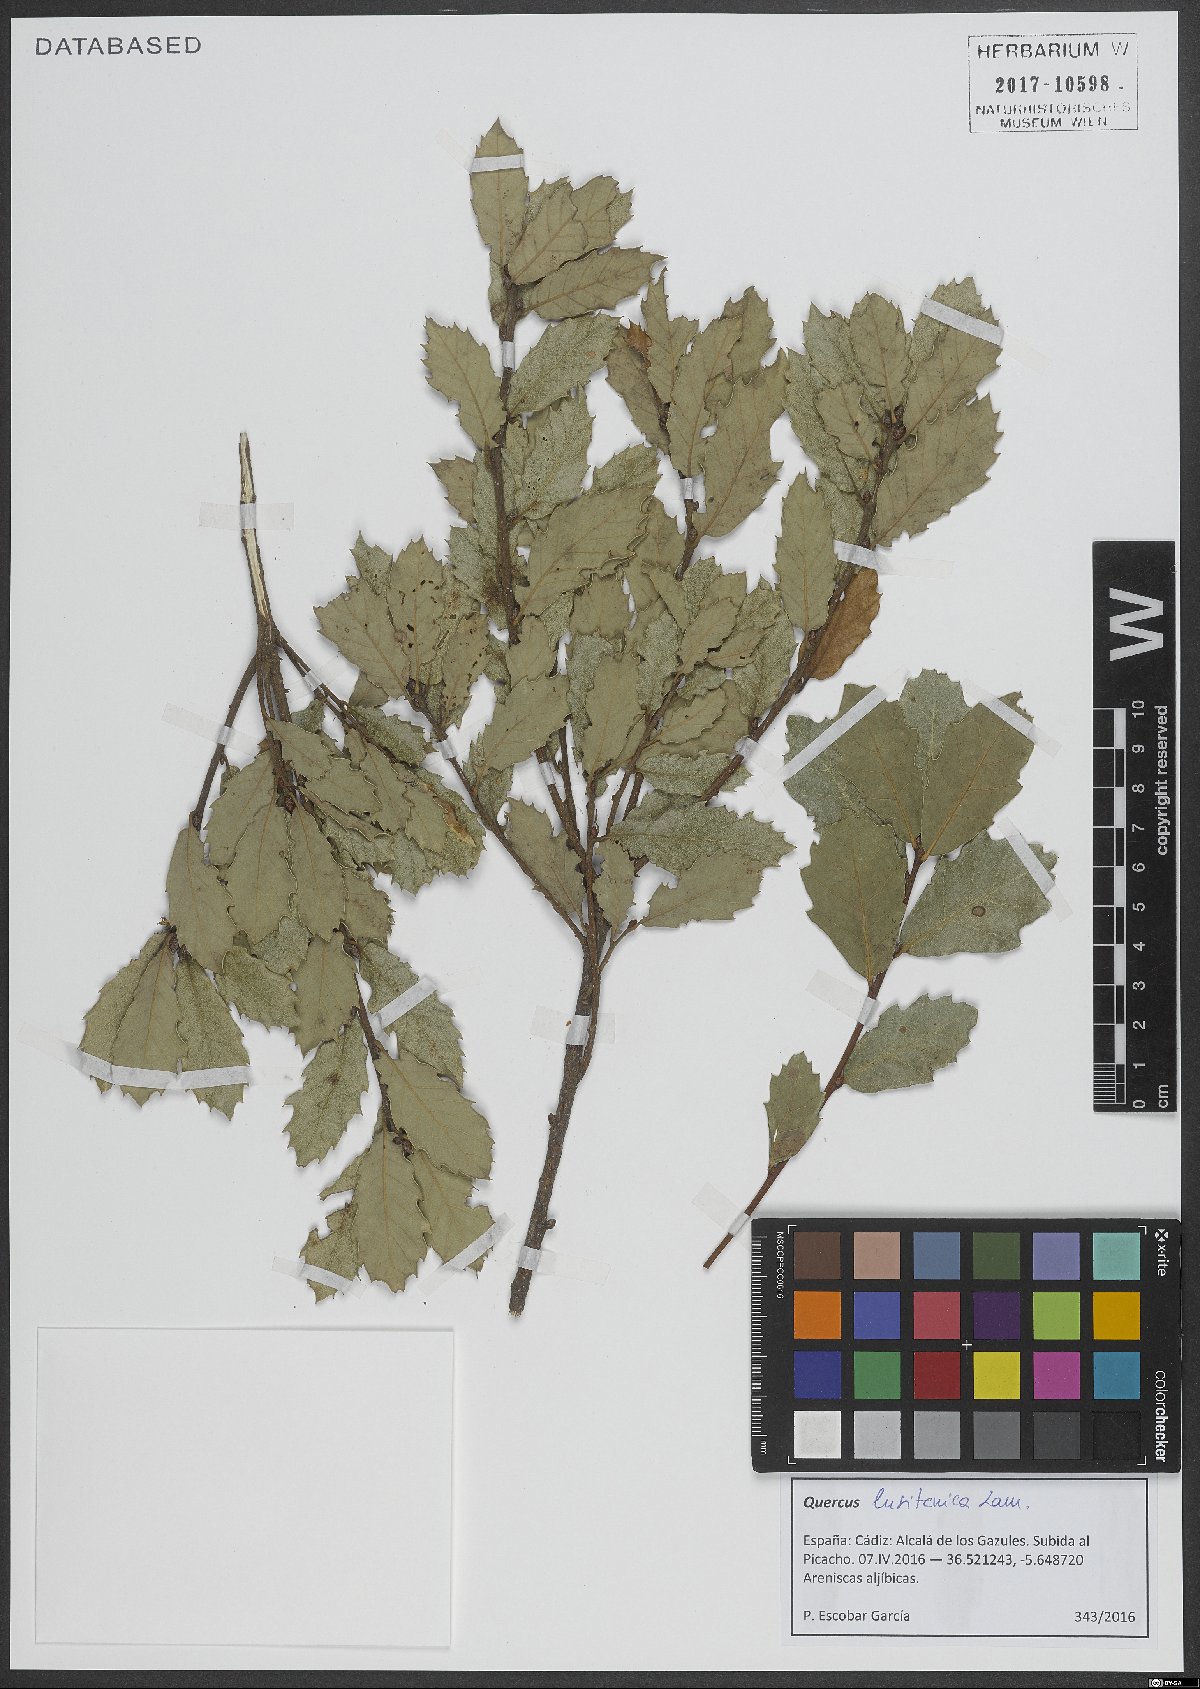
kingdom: Plantae
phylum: Tracheophyta
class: Magnoliopsida
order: Fagales
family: Fagaceae
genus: Quercus
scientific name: Quercus lusitanica
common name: Scrub gall oak
